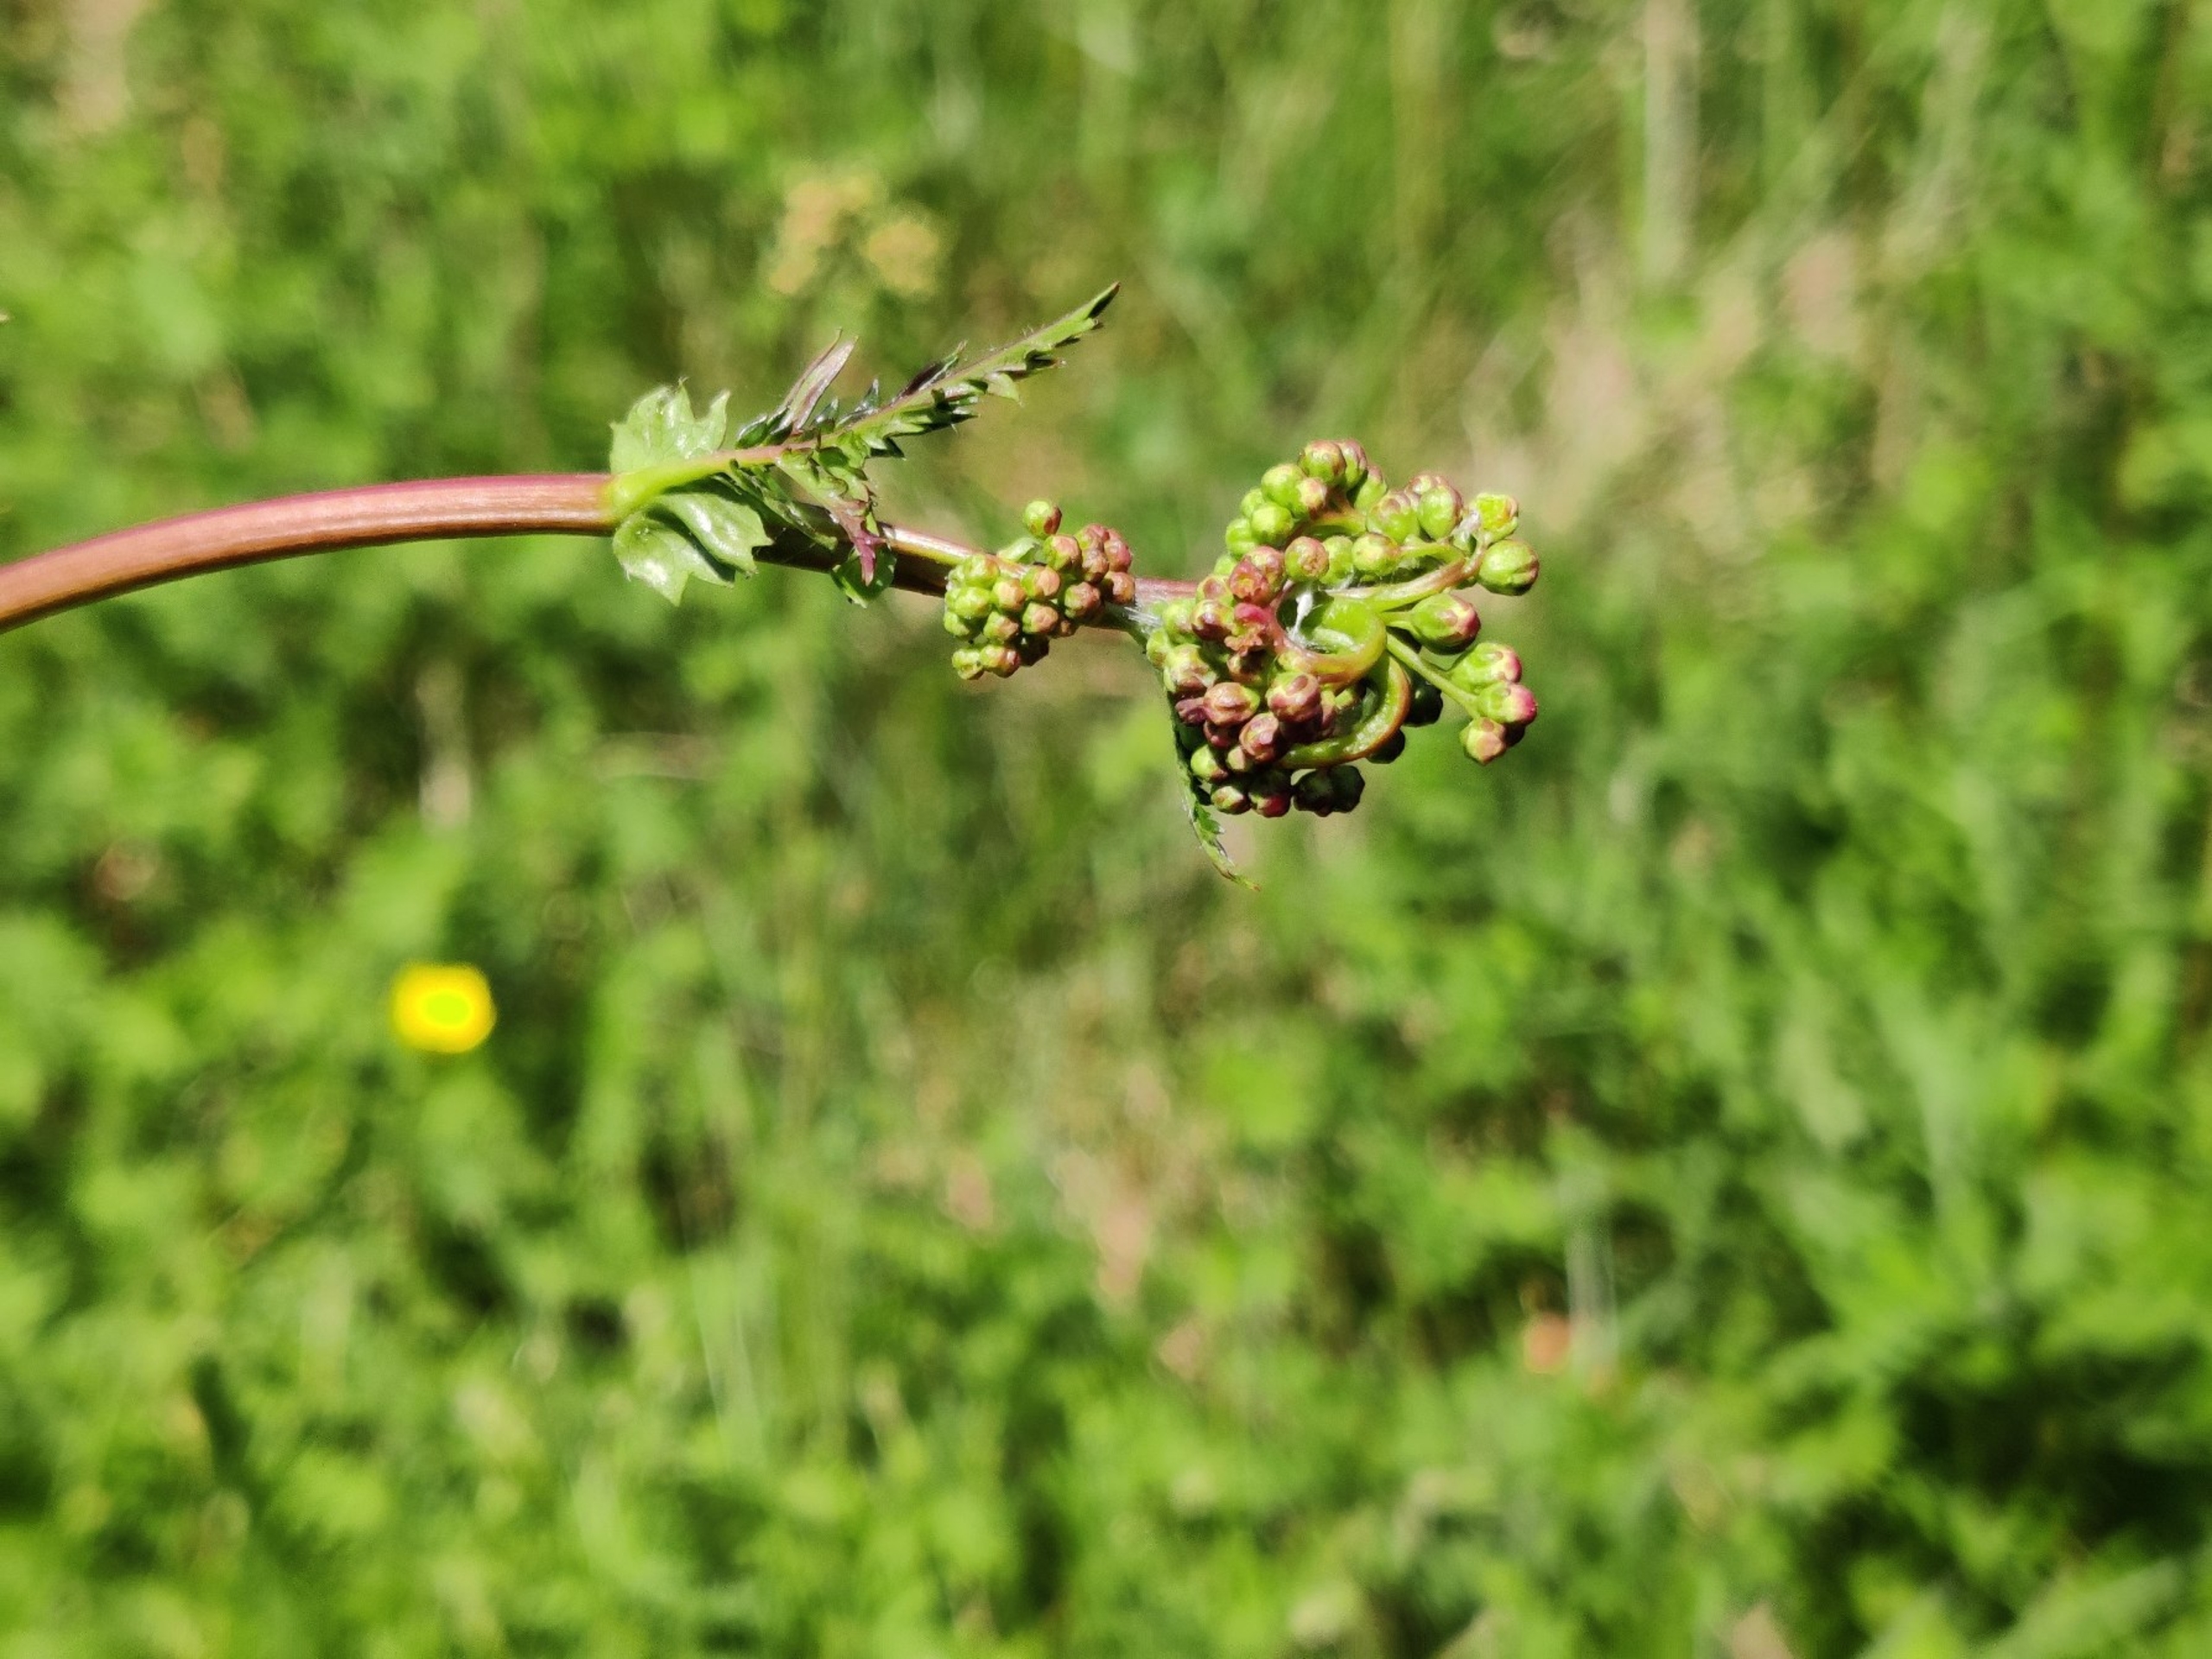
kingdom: Plantae
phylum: Tracheophyta
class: Magnoliopsida
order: Rosales
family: Rosaceae
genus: Filipendula
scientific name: Filipendula vulgaris
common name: Knoldet mjødurt
